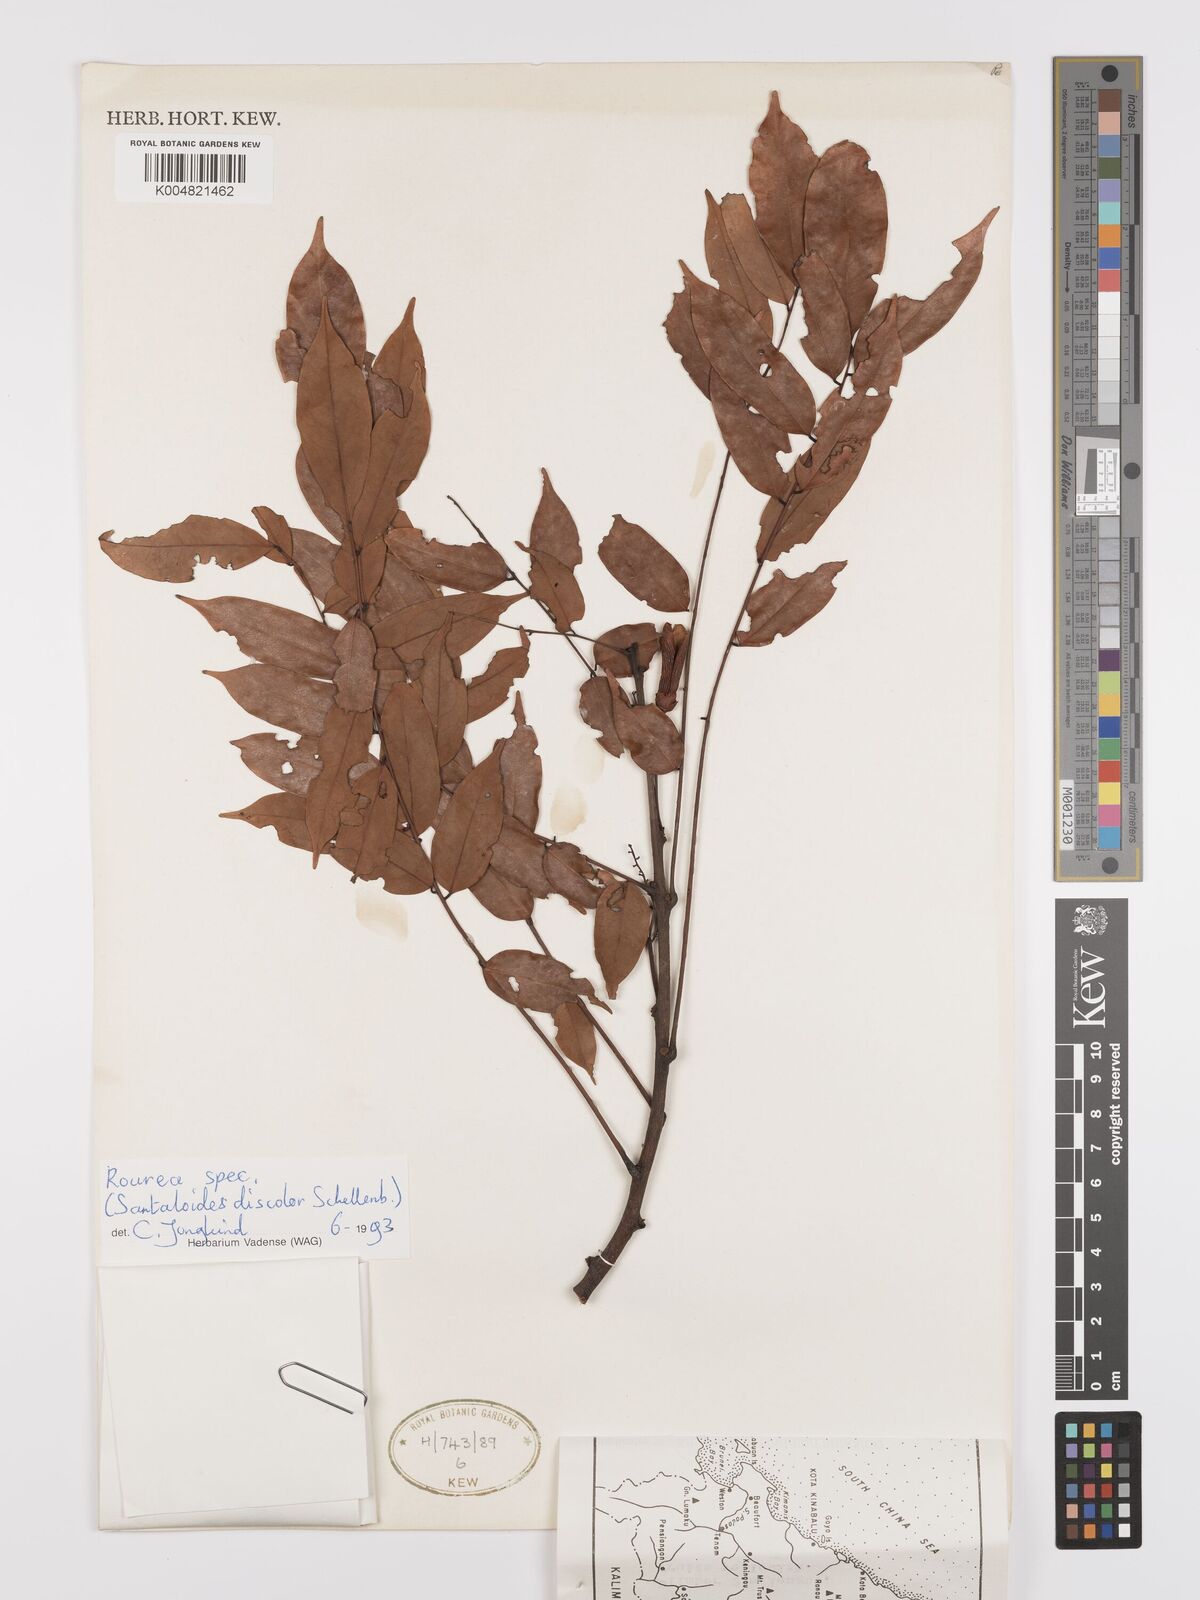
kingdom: Plantae
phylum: Tracheophyta
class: Magnoliopsida
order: Oxalidales
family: Connaraceae
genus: Rourea
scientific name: Rourea
